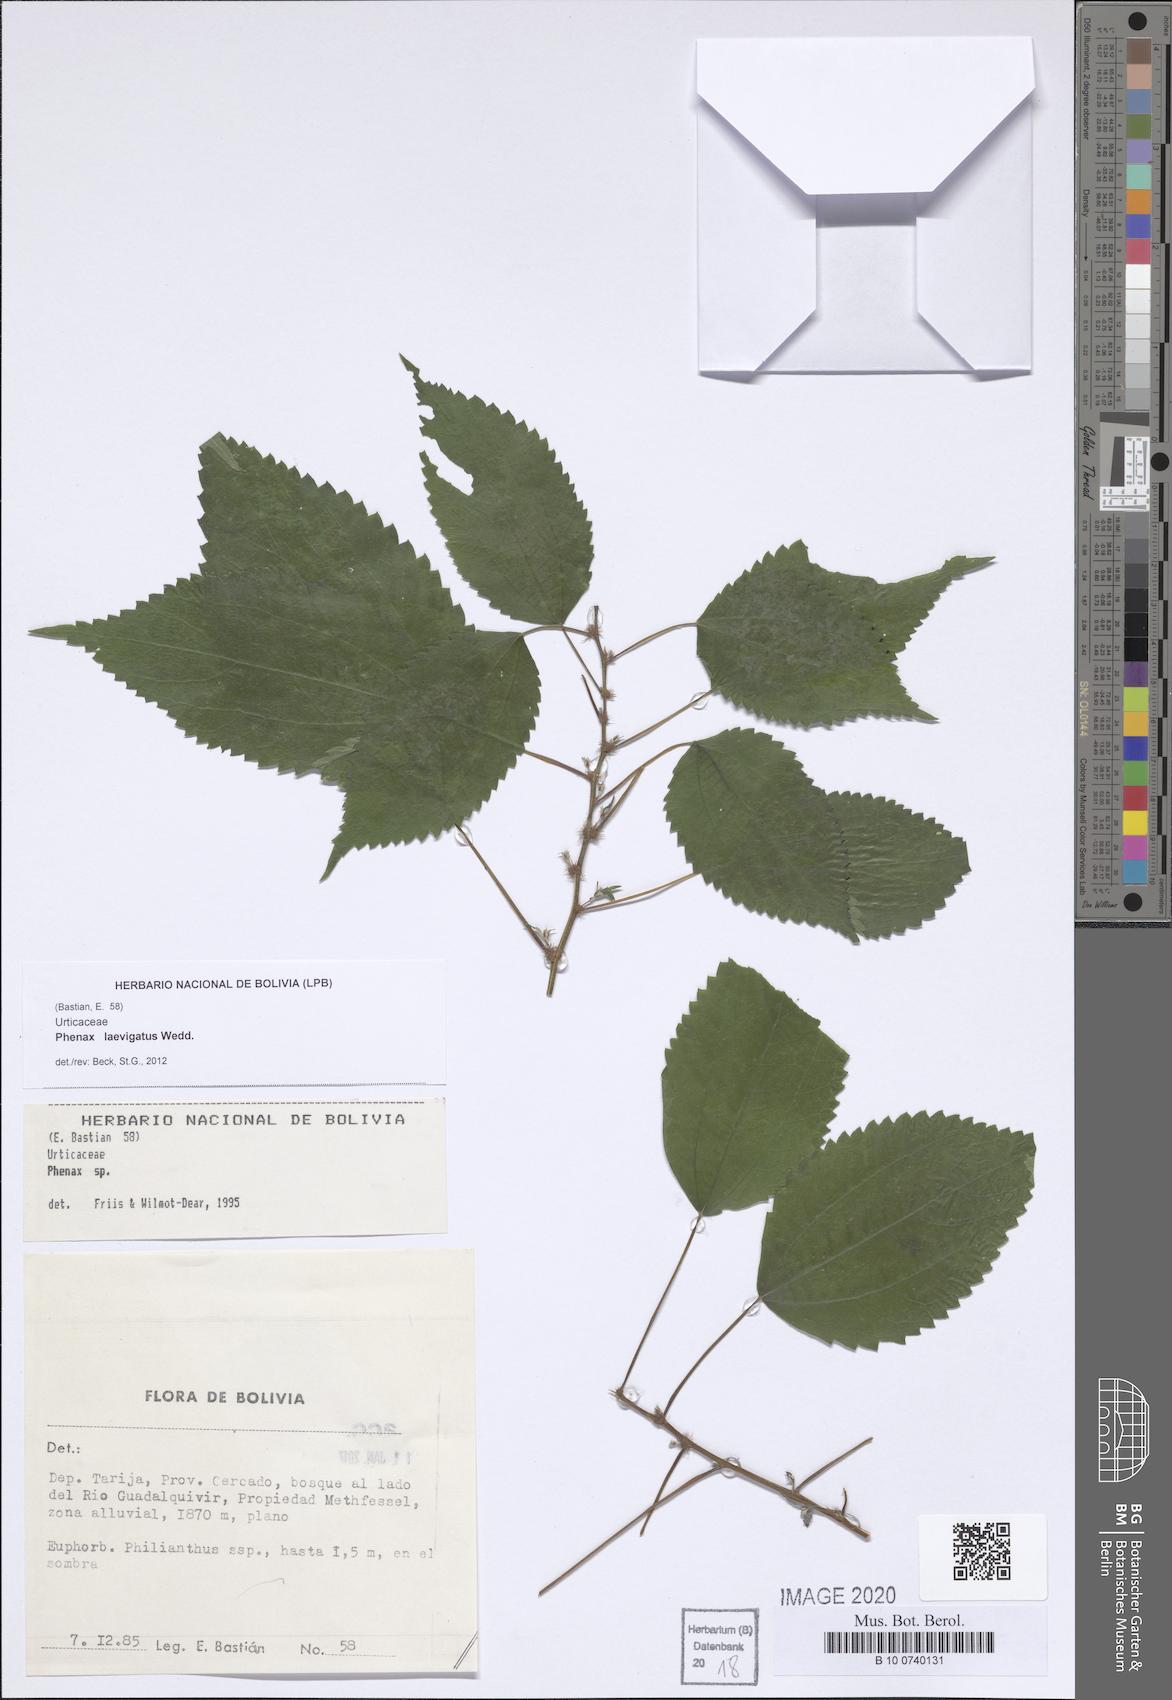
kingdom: Plantae
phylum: Tracheophyta
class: Magnoliopsida
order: Rosales
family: Urticaceae
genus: Phenax
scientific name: Phenax laevigatus
